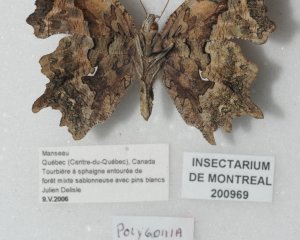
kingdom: Animalia
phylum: Arthropoda
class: Insecta
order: Lepidoptera
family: Nymphalidae
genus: Polygonia
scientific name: Polygonia faunus
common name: Green Comma
